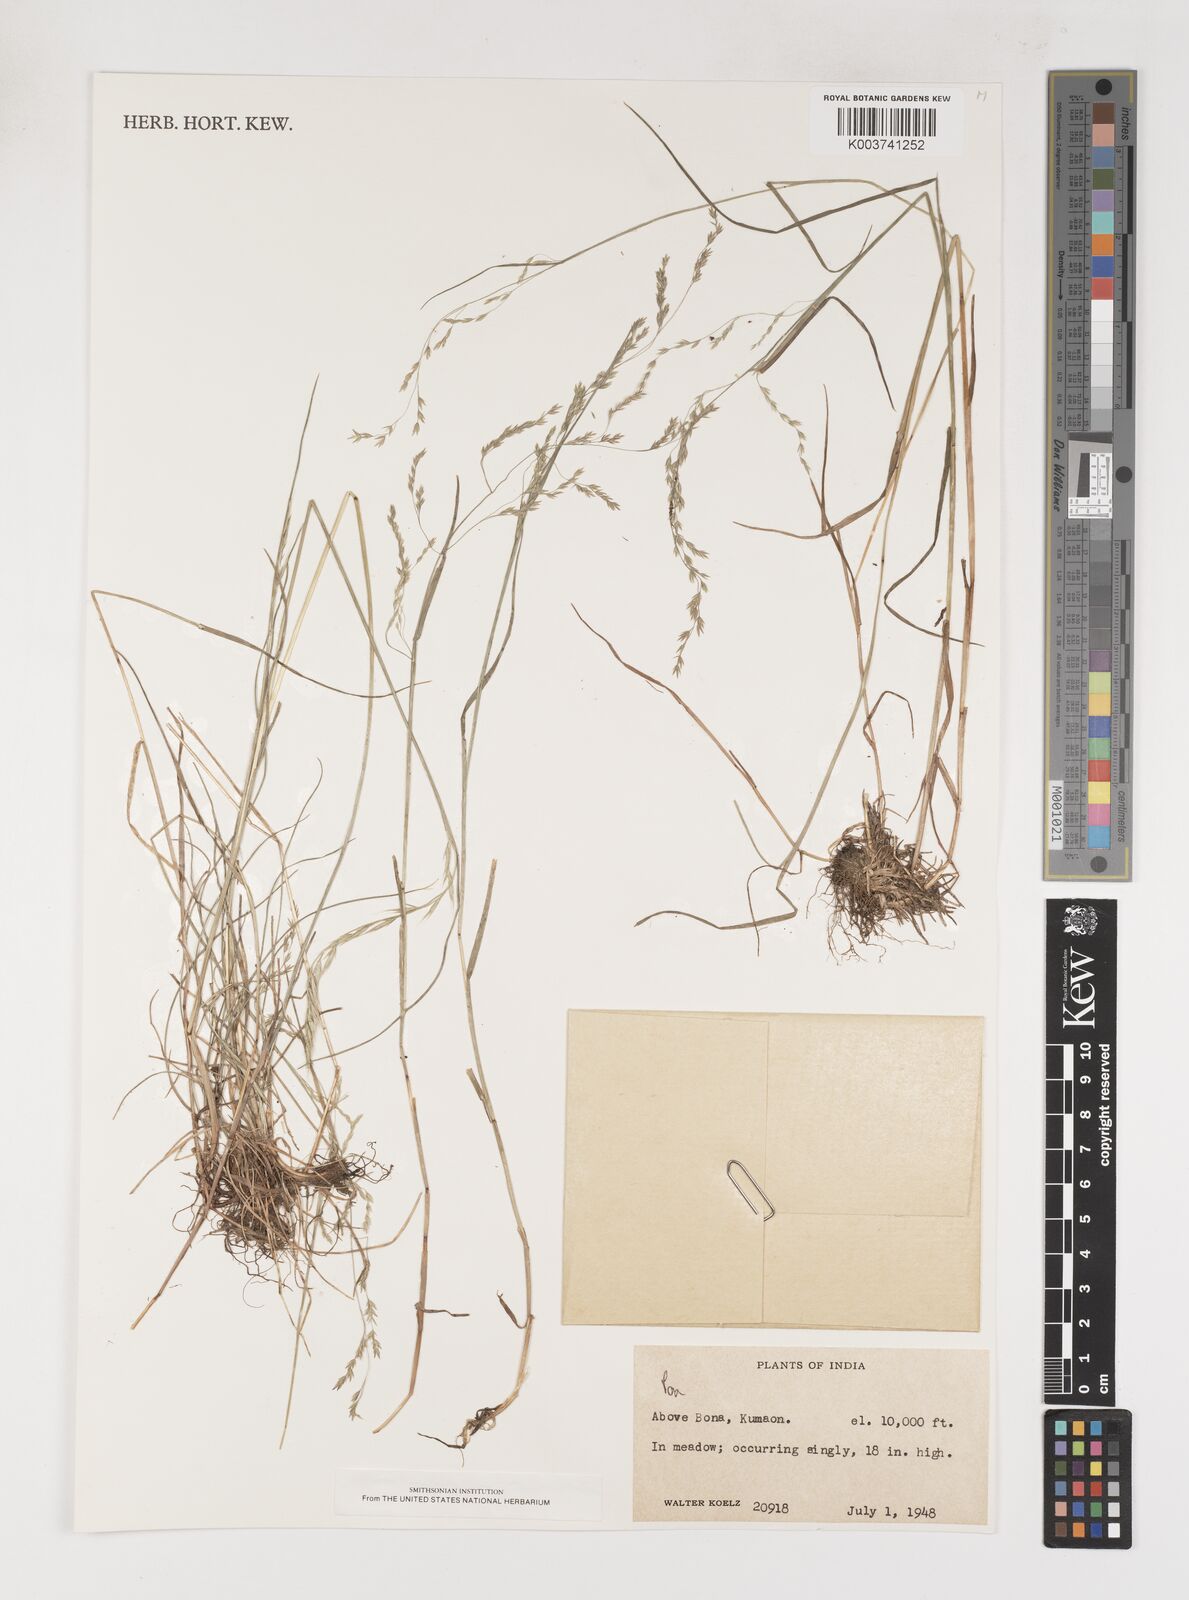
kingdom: Plantae
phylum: Tracheophyta
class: Liliopsida
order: Poales
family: Poaceae
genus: Poa
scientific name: Poa
